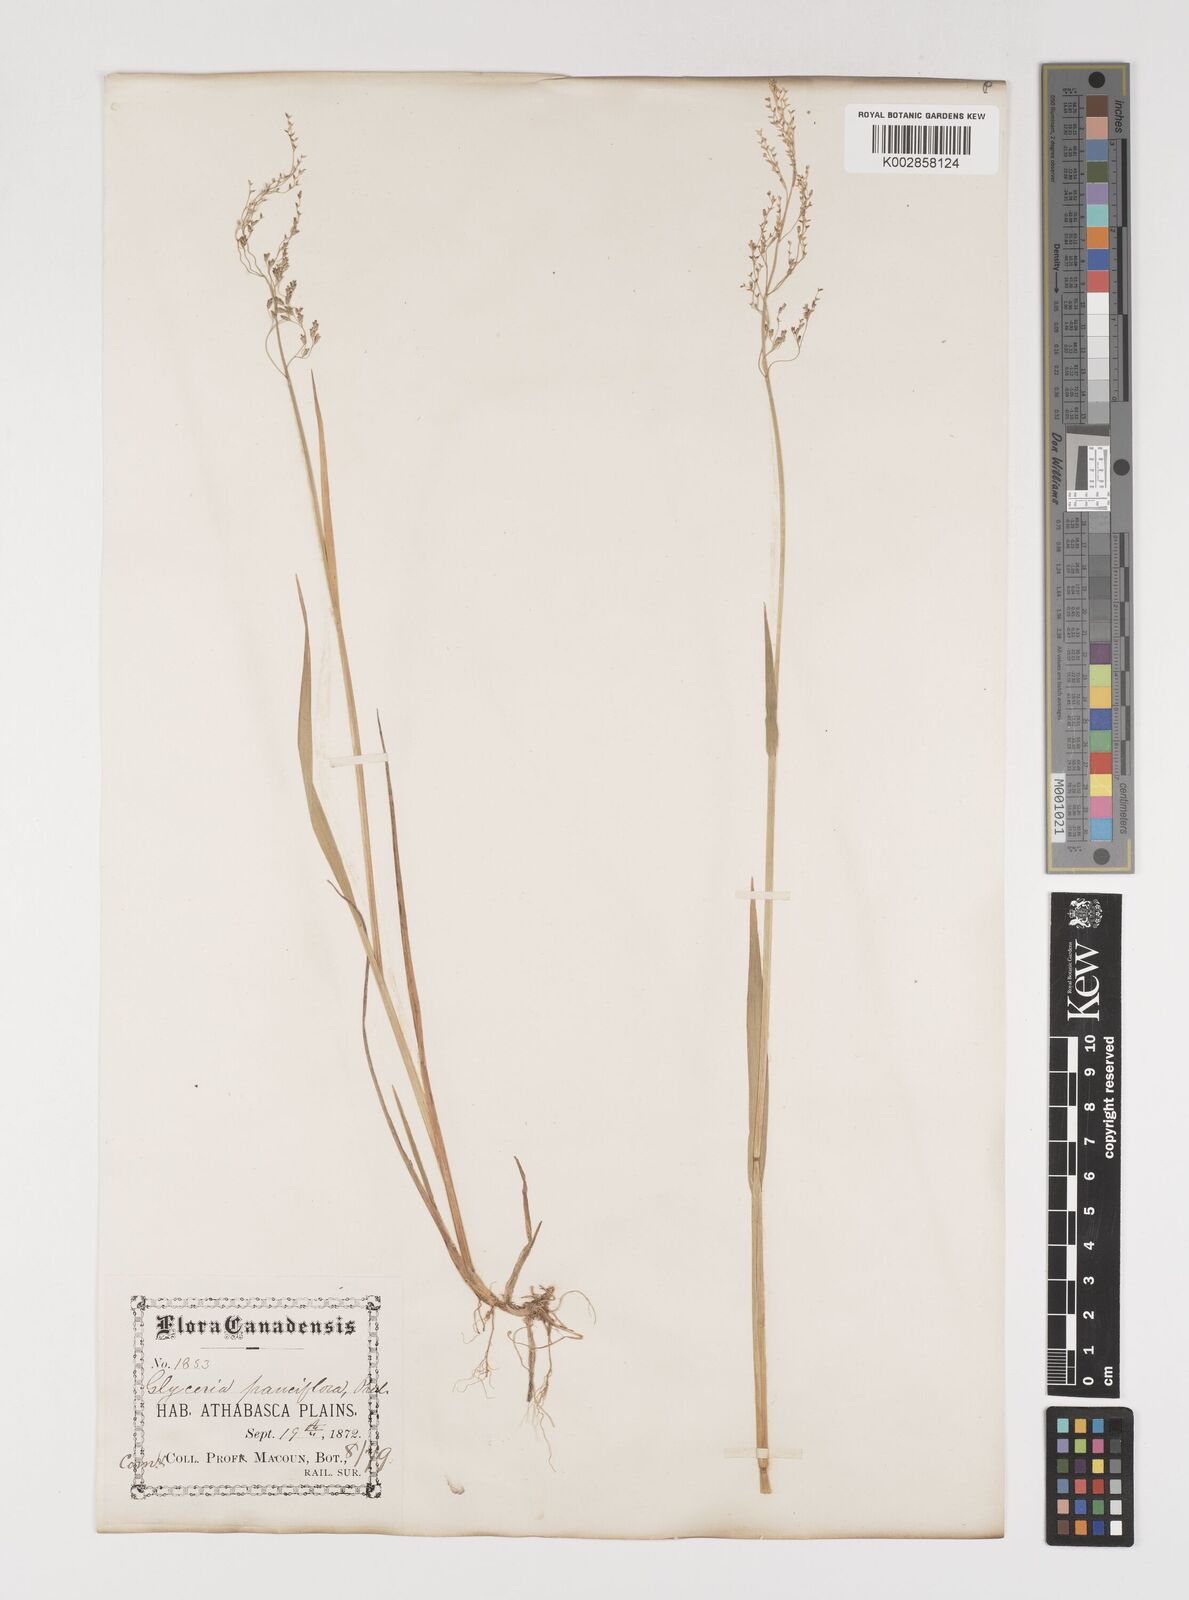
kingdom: Plantae
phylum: Tracheophyta
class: Liliopsida
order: Poales
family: Poaceae
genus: Torreyochloa
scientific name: Torreyochloa pallida
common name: Pale false mannagrass
